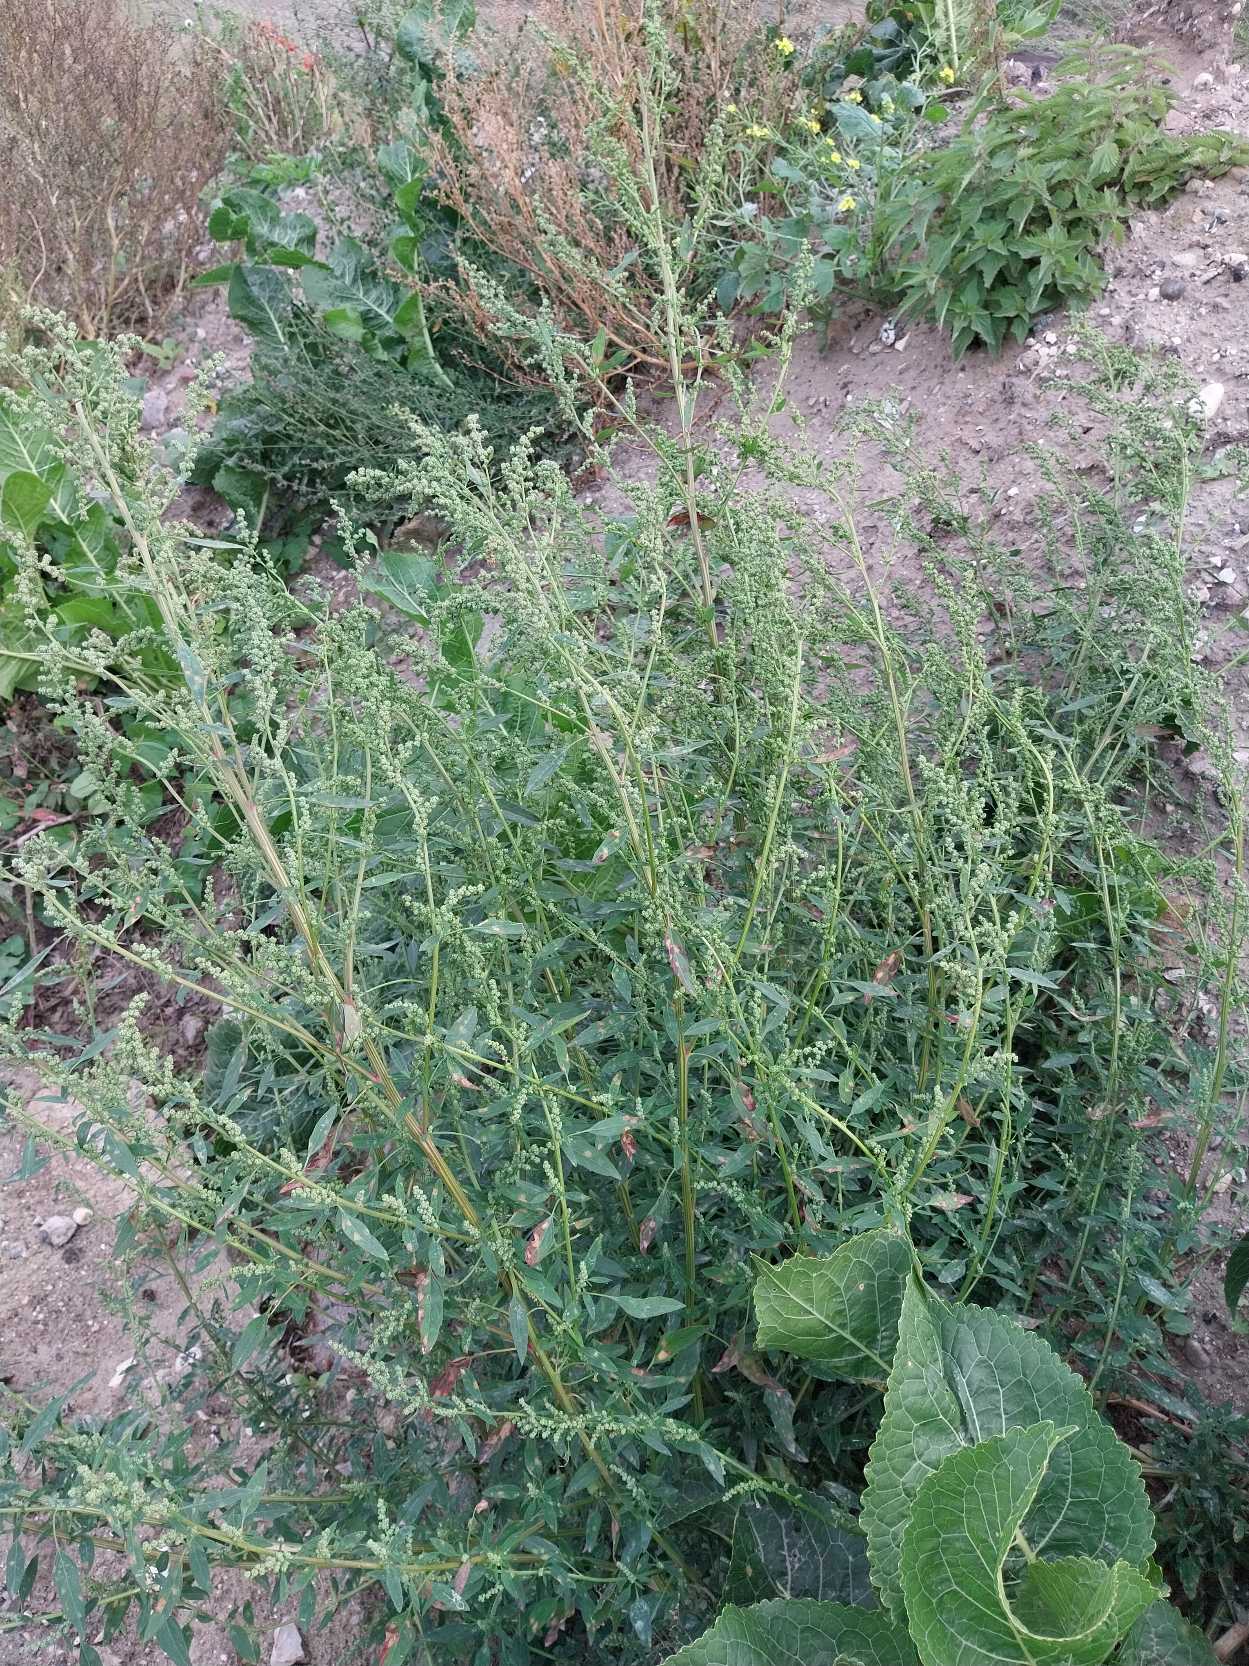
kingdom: Plantae
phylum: Tracheophyta
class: Magnoliopsida
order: Caryophyllales
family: Amaranthaceae
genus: Chenopodium
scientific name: Chenopodium pratericola
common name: Finbladet gåsefod
